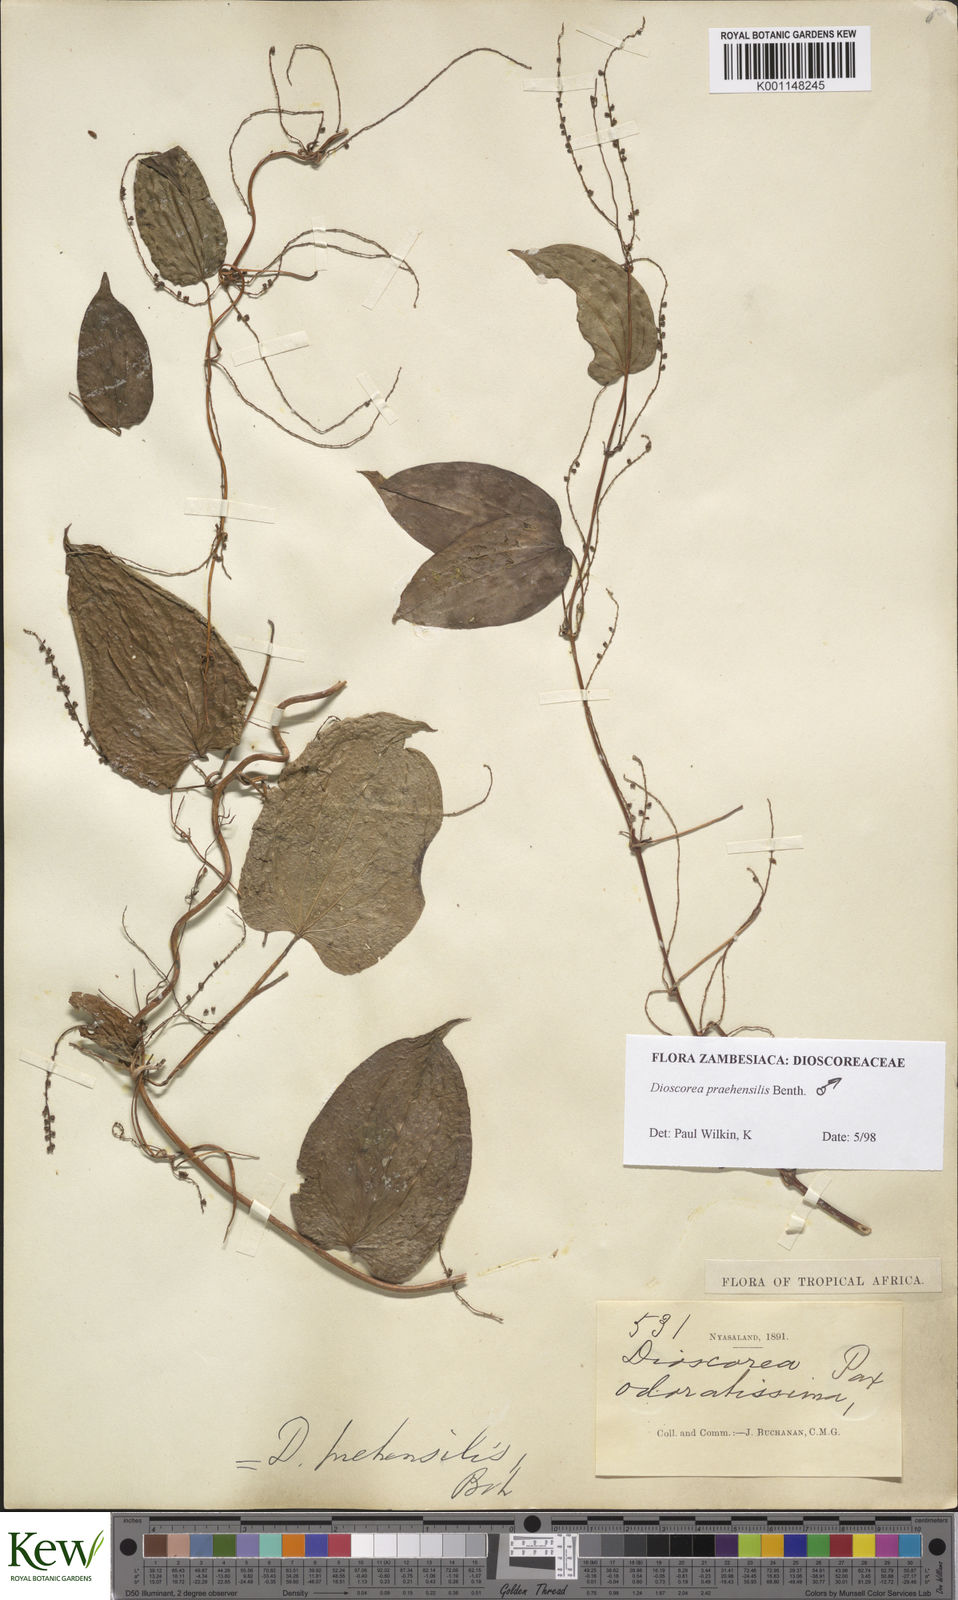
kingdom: Plantae
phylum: Tracheophyta
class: Liliopsida
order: Dioscoreales
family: Dioscoreaceae
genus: Dioscorea
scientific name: Dioscorea praehensilis
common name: Bush yam
